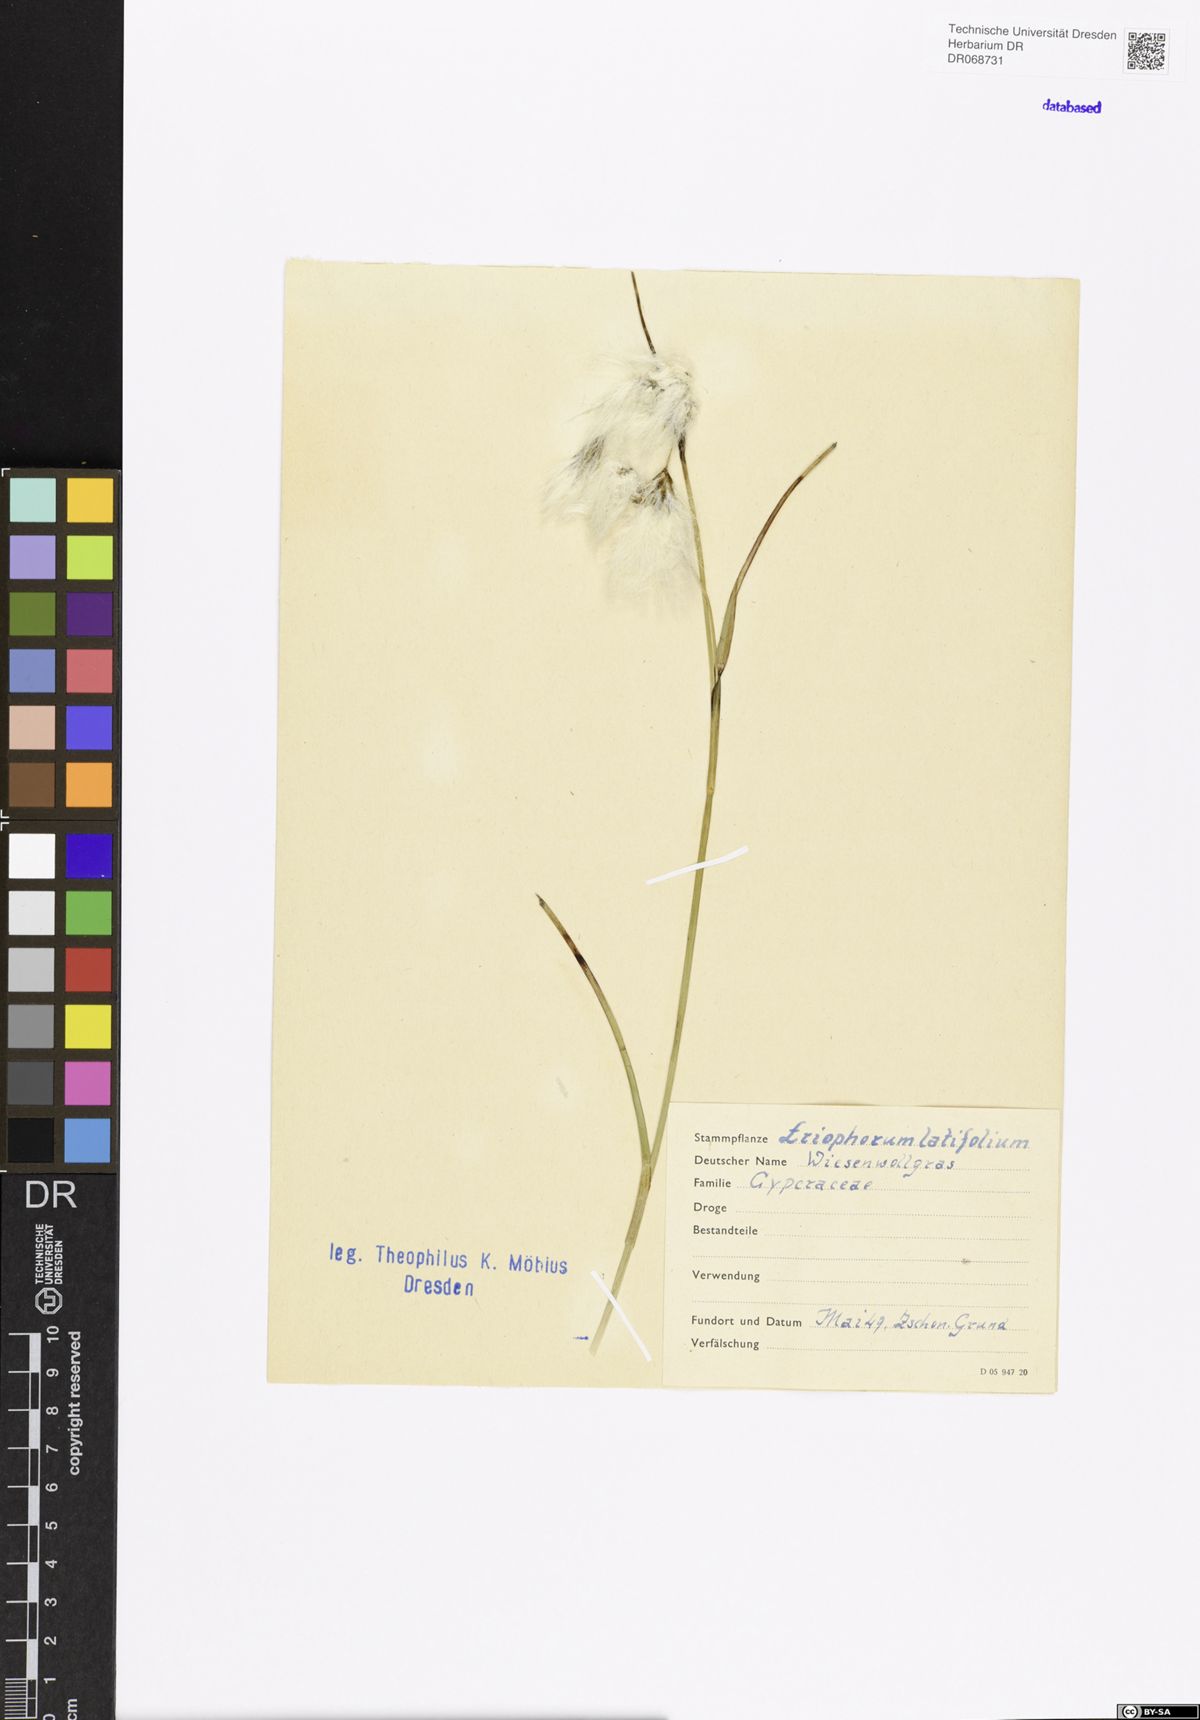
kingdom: Plantae
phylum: Tracheophyta
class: Liliopsida
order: Poales
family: Cyperaceae
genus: Eriophorum
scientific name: Eriophorum latifolium
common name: Broad-leaved cottongrass
